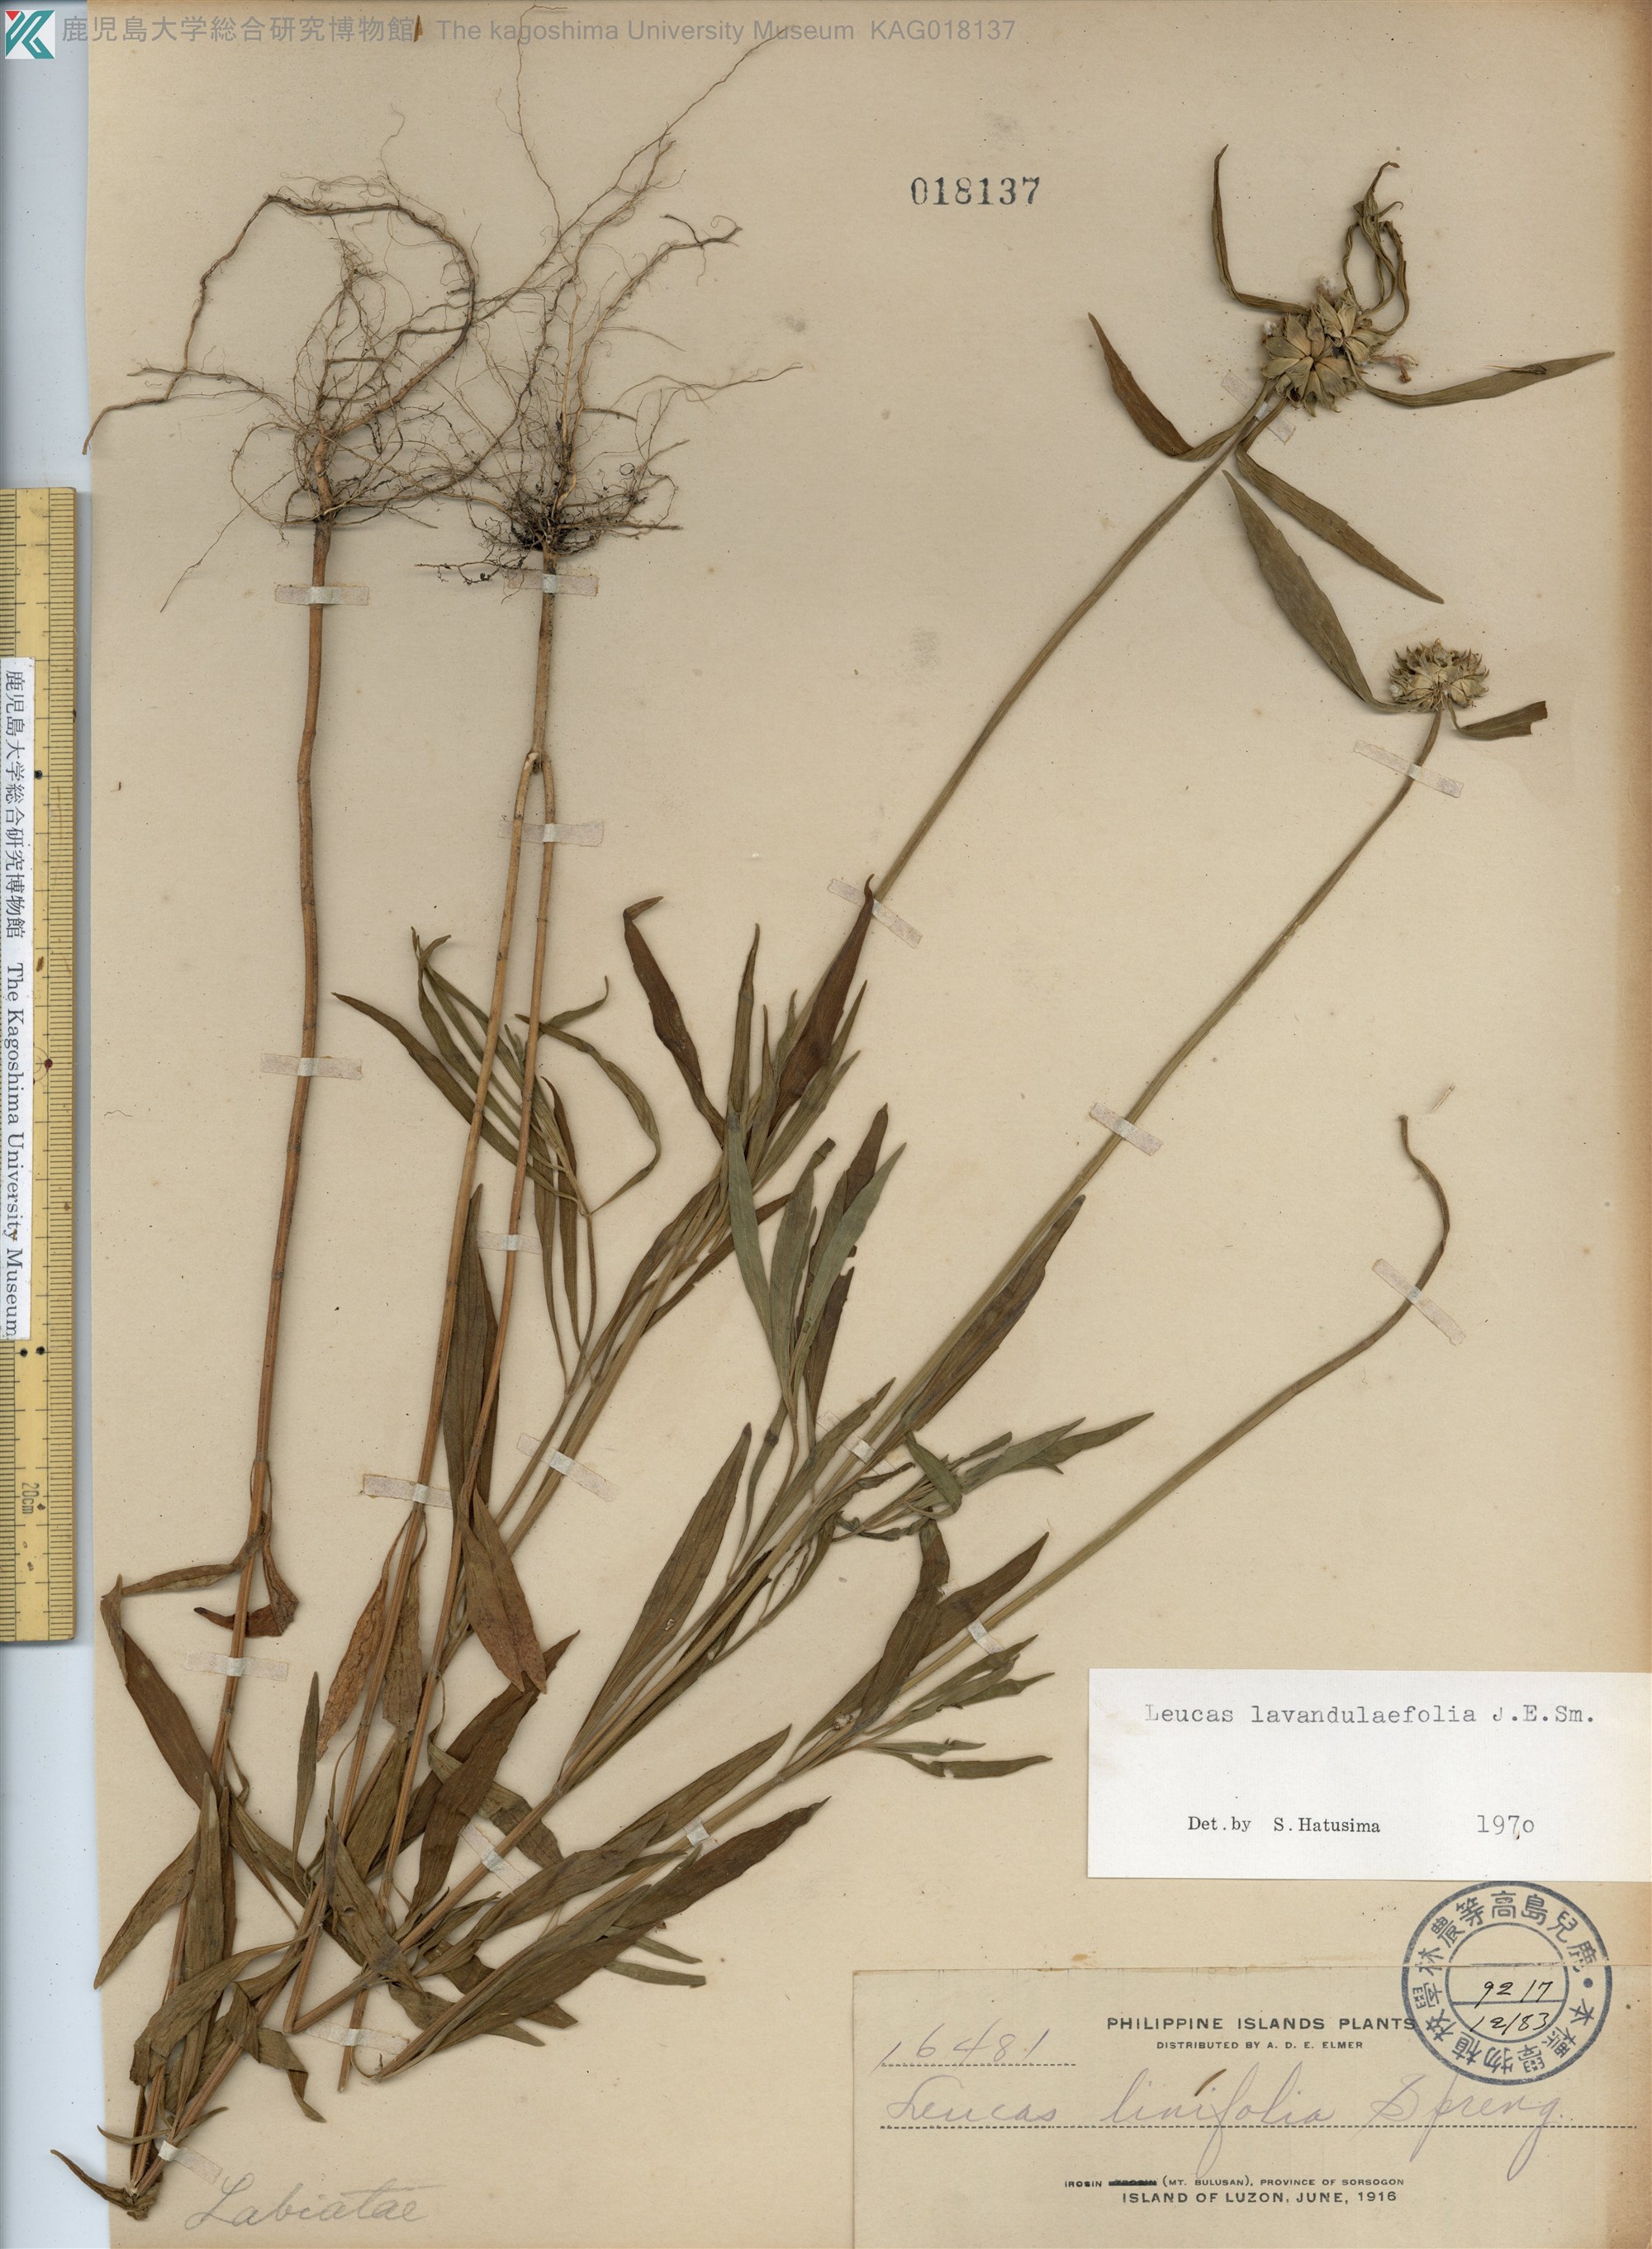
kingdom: Plantae
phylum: Tracheophyta
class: Magnoliopsida
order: Lamiales
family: Lamiaceae
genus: Leucas
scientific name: Leucas lavandulaefolia
